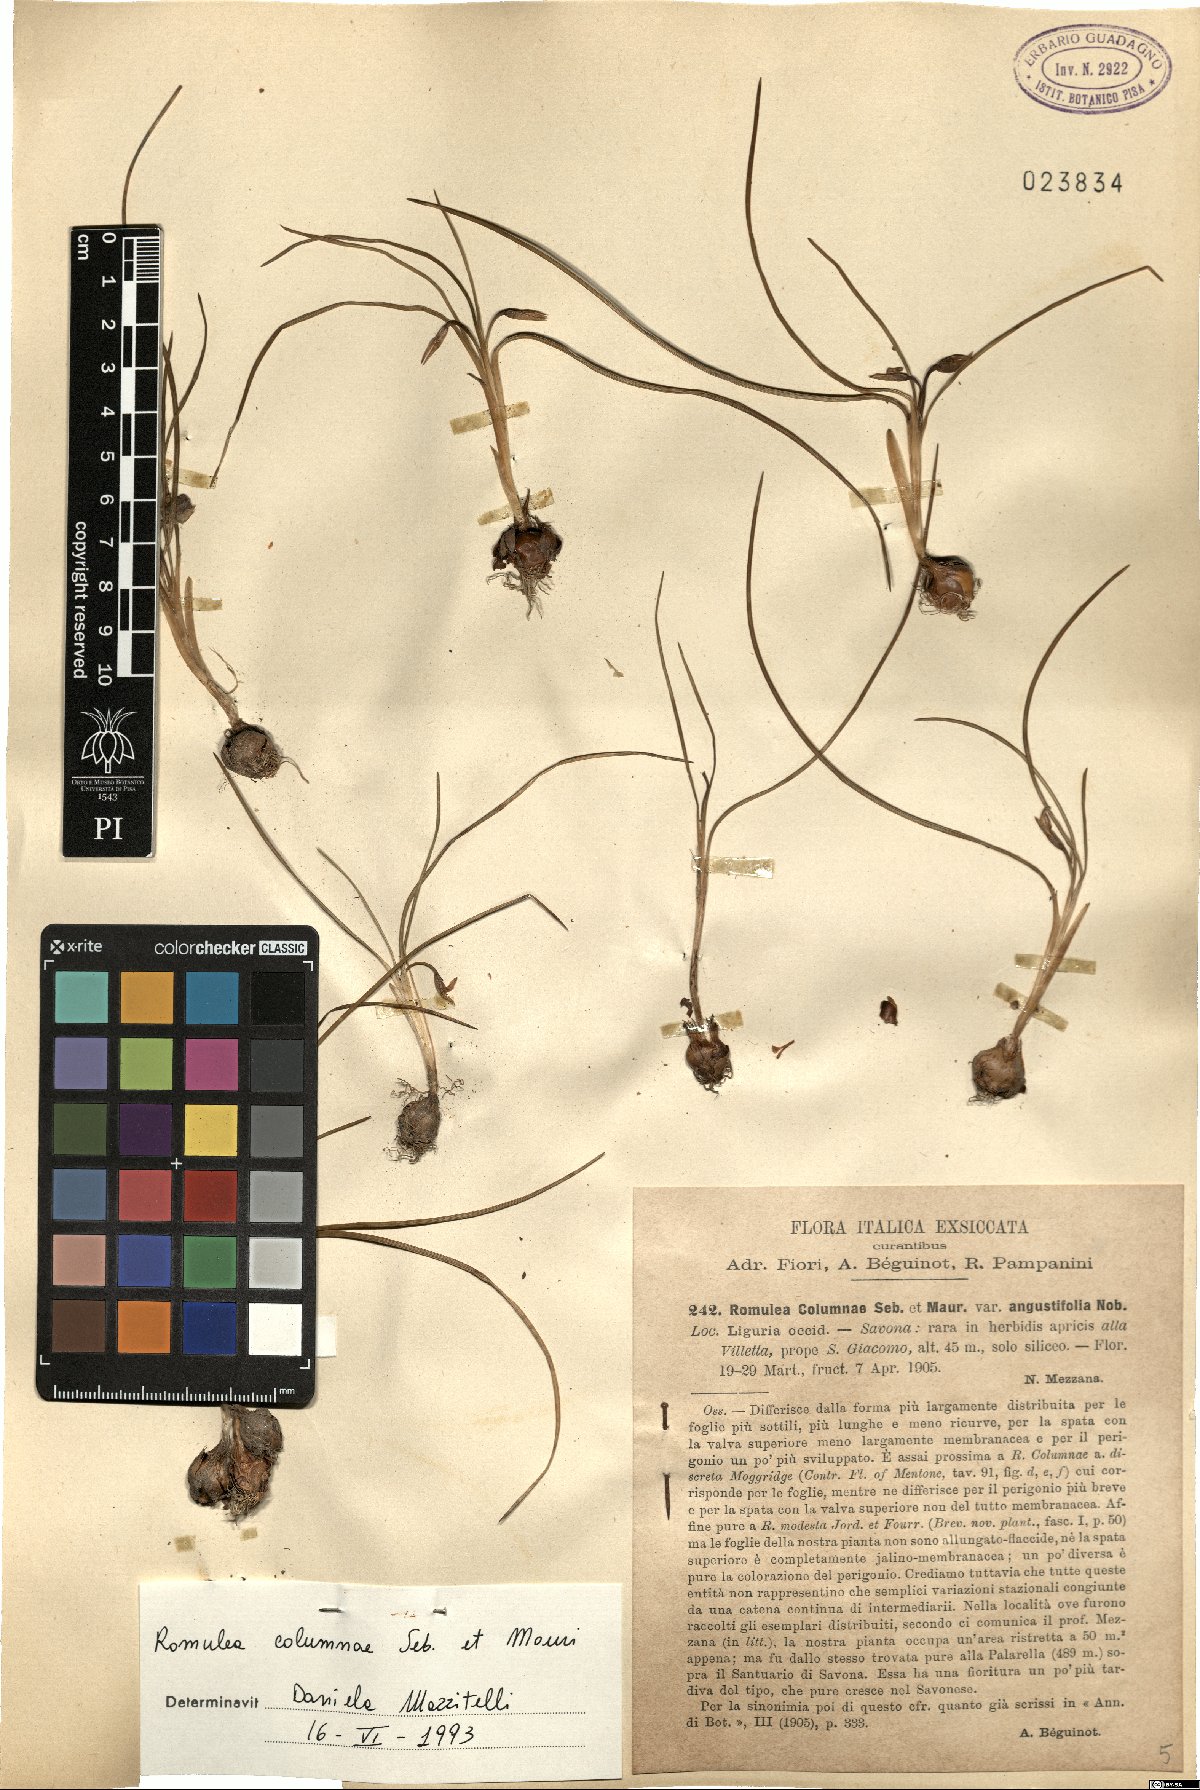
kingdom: Plantae
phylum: Tracheophyta
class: Liliopsida
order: Asparagales
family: Iridaceae
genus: Romulea
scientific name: Romulea columnae
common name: Sand-crocus
